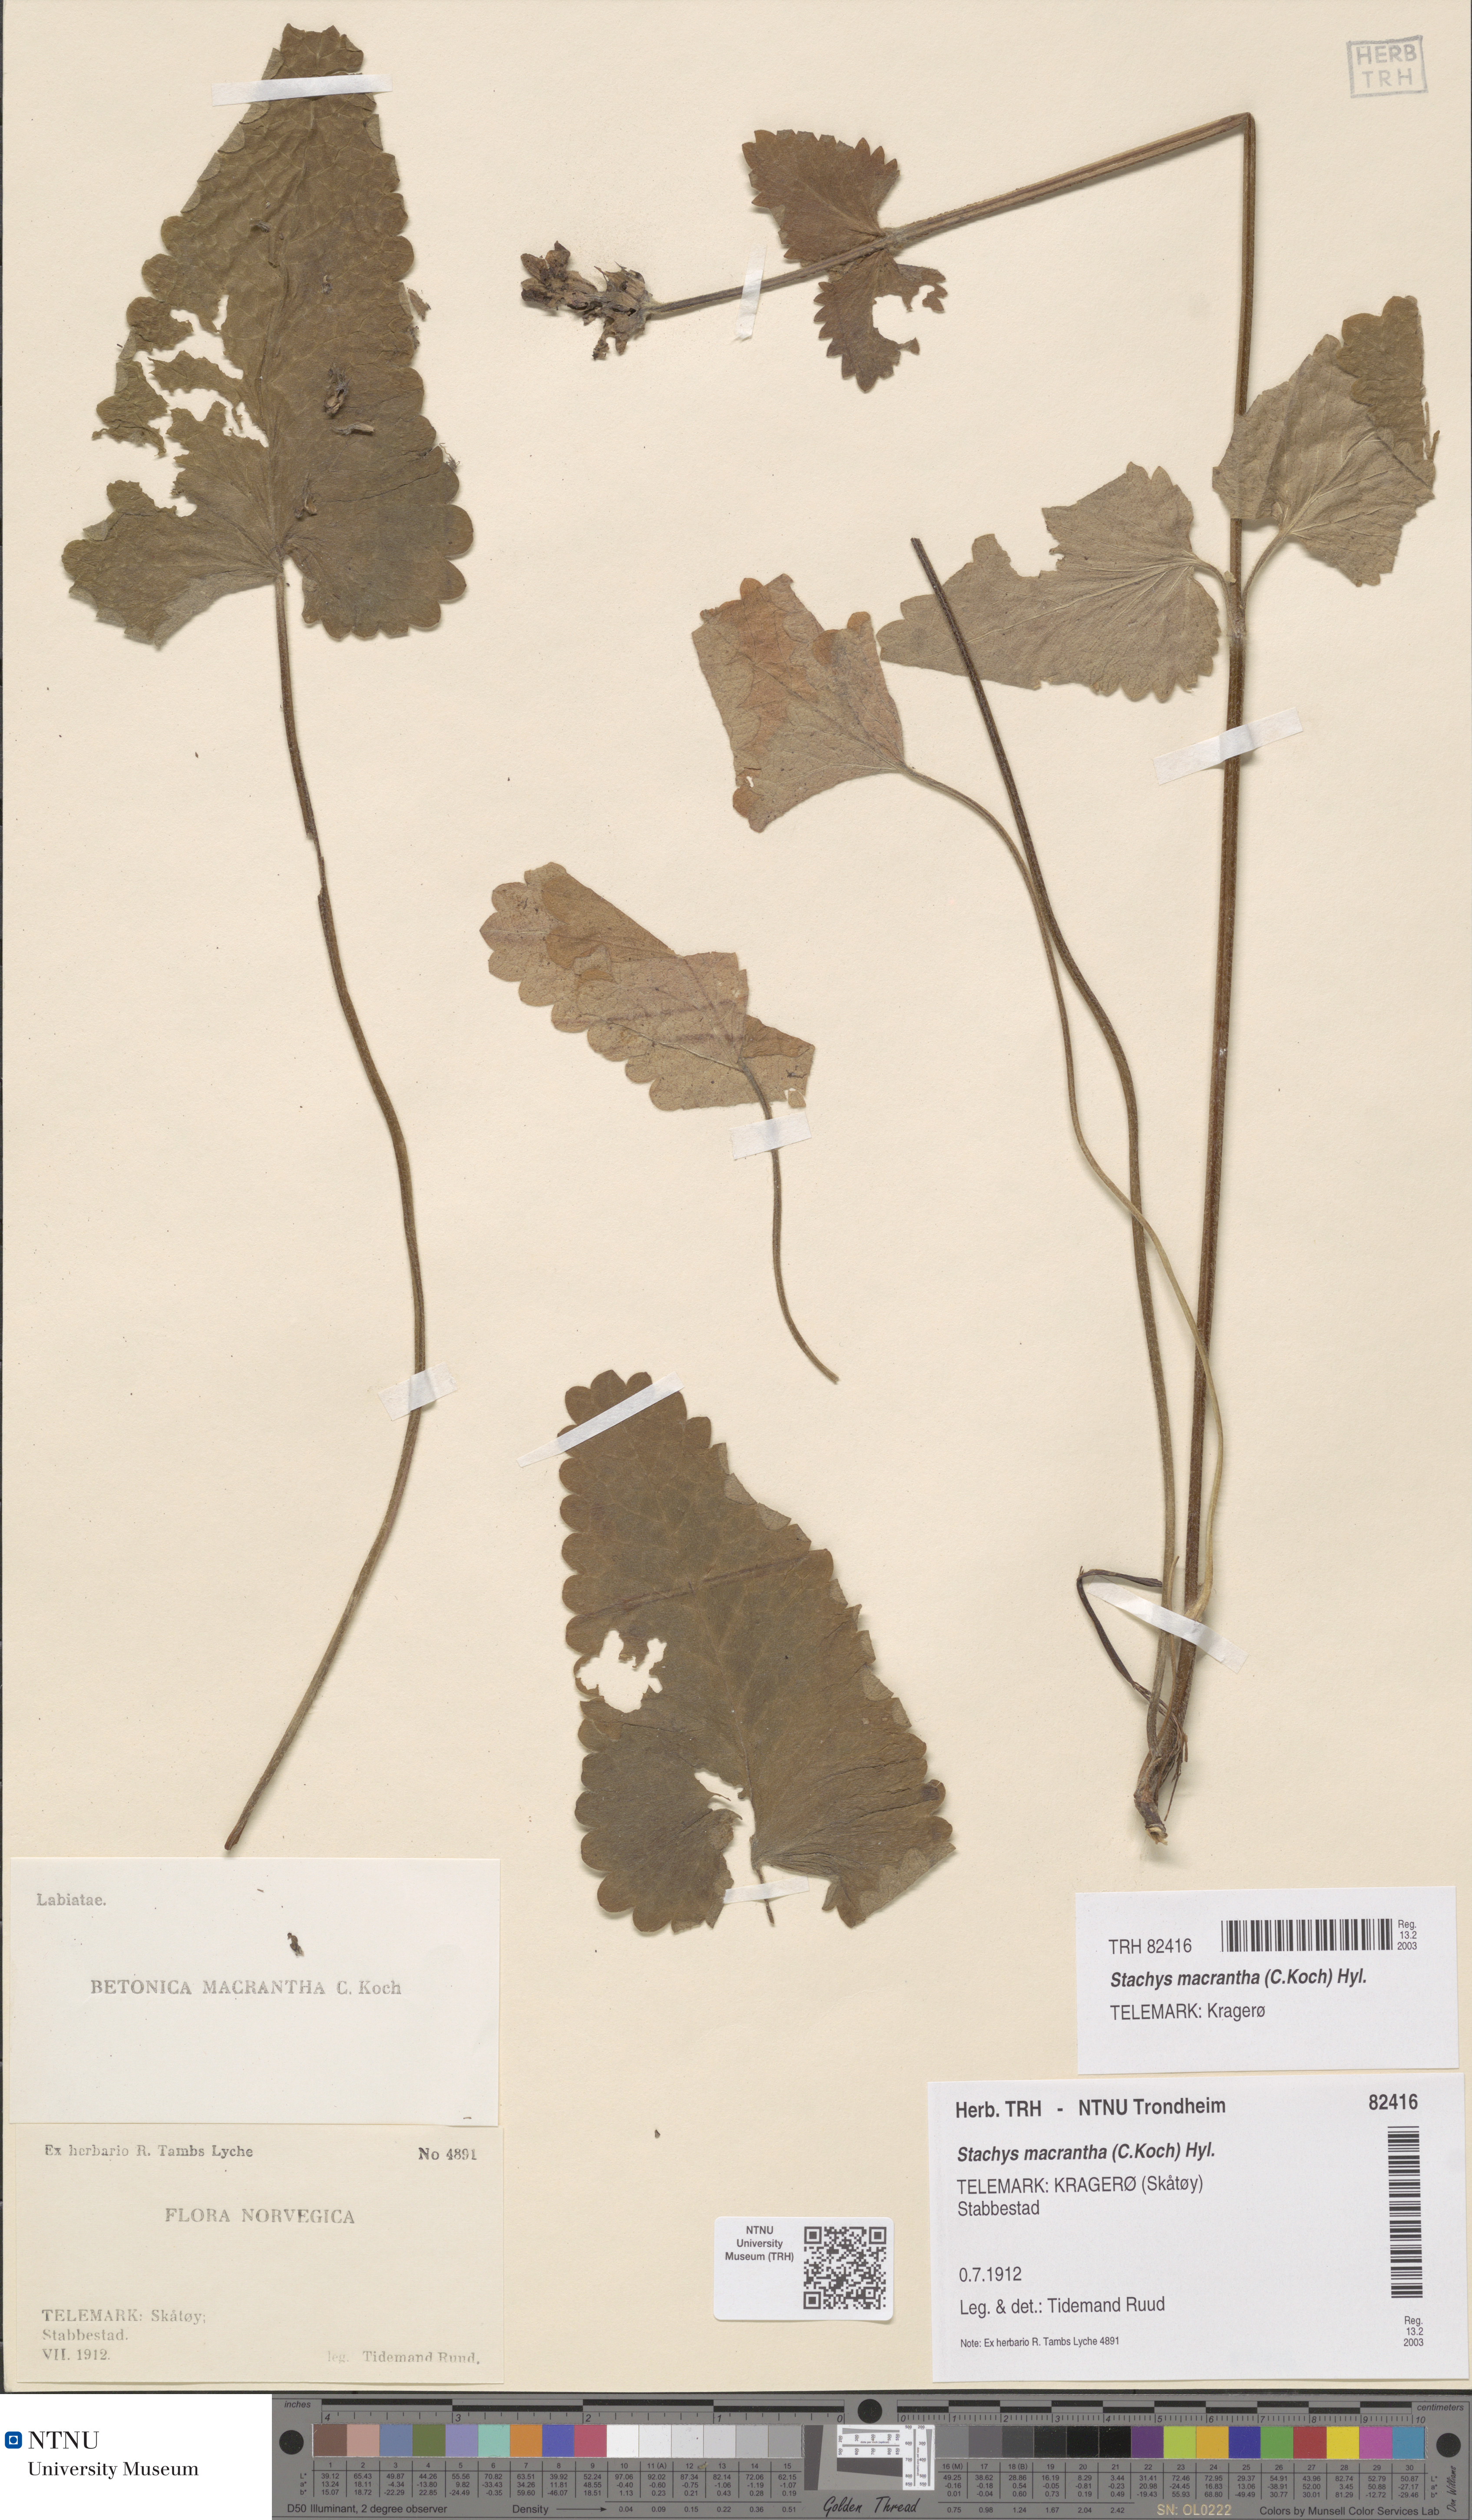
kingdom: Plantae
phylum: Tracheophyta
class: Magnoliopsida
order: Lamiales
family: Lamiaceae
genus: Betonica
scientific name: Betonica macrantha
